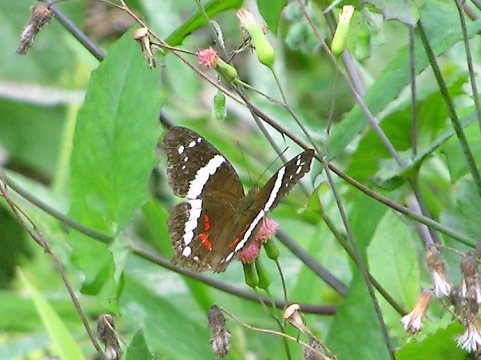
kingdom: Animalia
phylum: Arthropoda
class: Insecta
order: Lepidoptera
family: Nymphalidae
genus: Anartia
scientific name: Anartia fatima
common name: Banded Peacock
